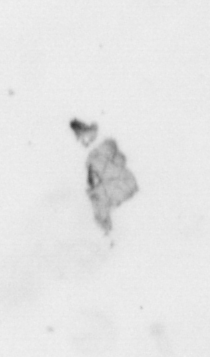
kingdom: Animalia
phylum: Arthropoda
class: Copepoda
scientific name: Copepoda
